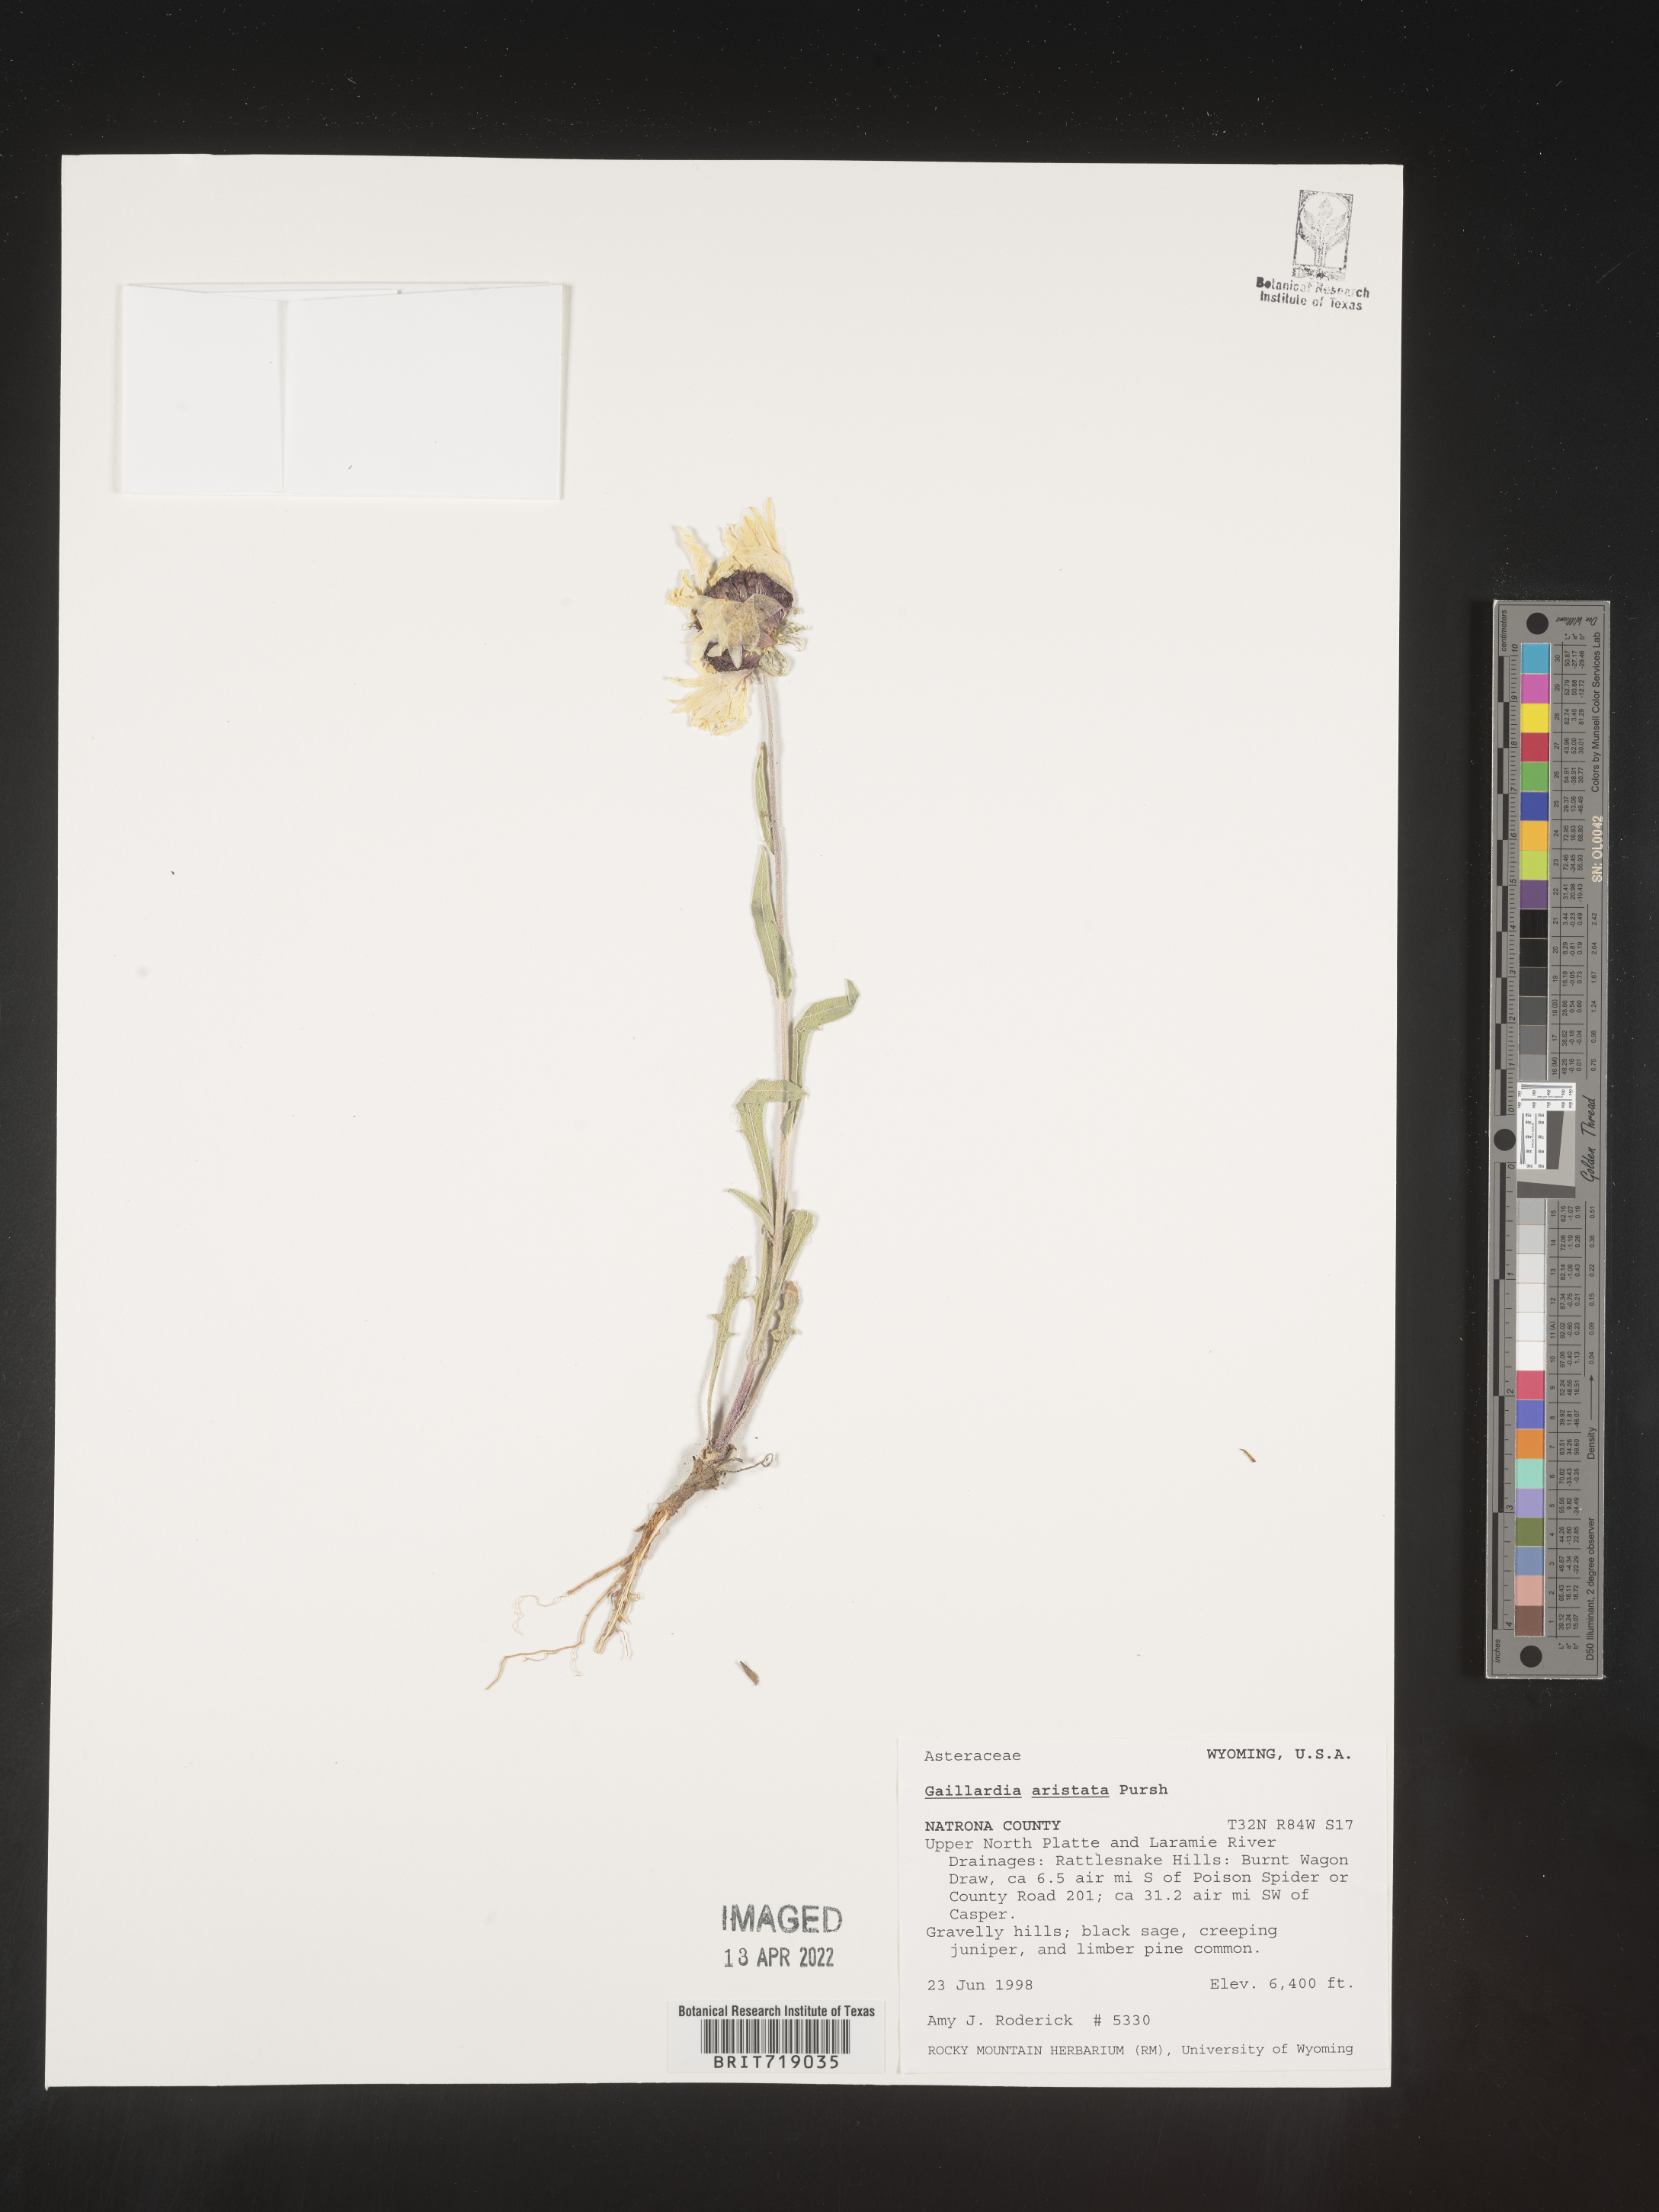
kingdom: Plantae
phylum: Tracheophyta
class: Magnoliopsida
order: Asterales
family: Asteraceae
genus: Gaillardia
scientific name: Gaillardia aristata
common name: Blanket-flower
